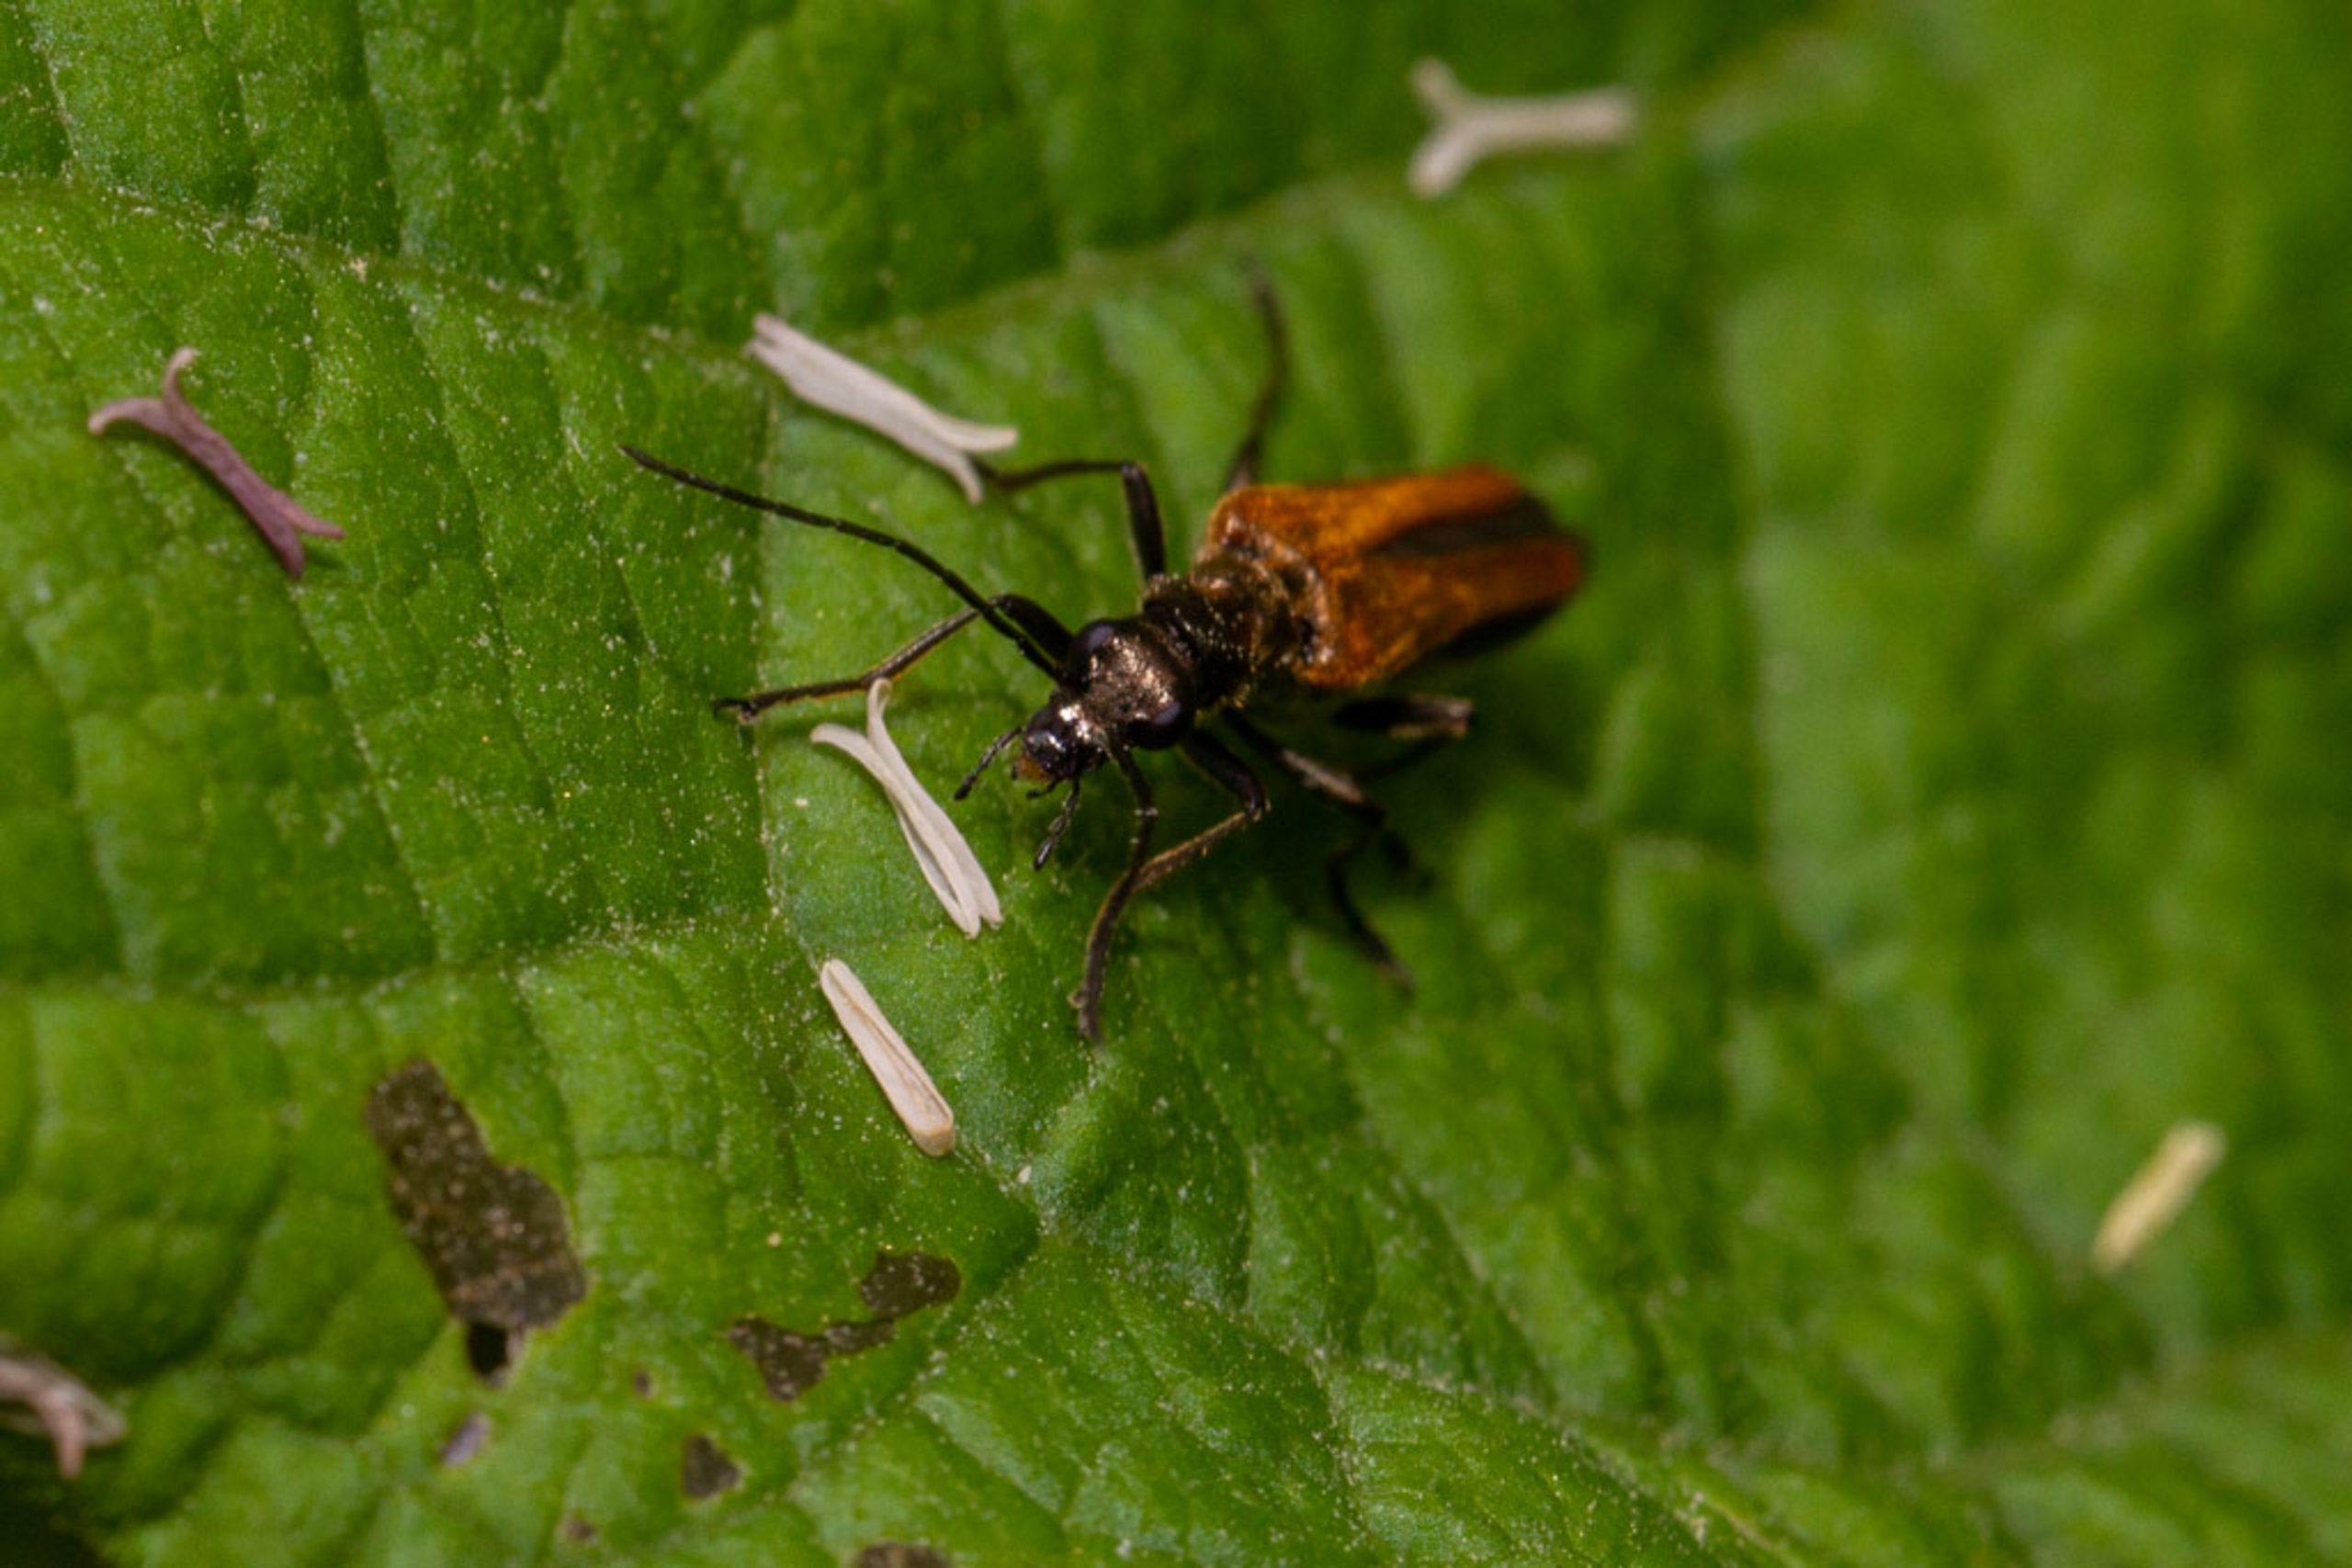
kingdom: Animalia
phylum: Arthropoda
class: Insecta
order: Coleoptera
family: Oedemeridae
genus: Oedemera
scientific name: Oedemera femorata
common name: Gulvinget solbille
